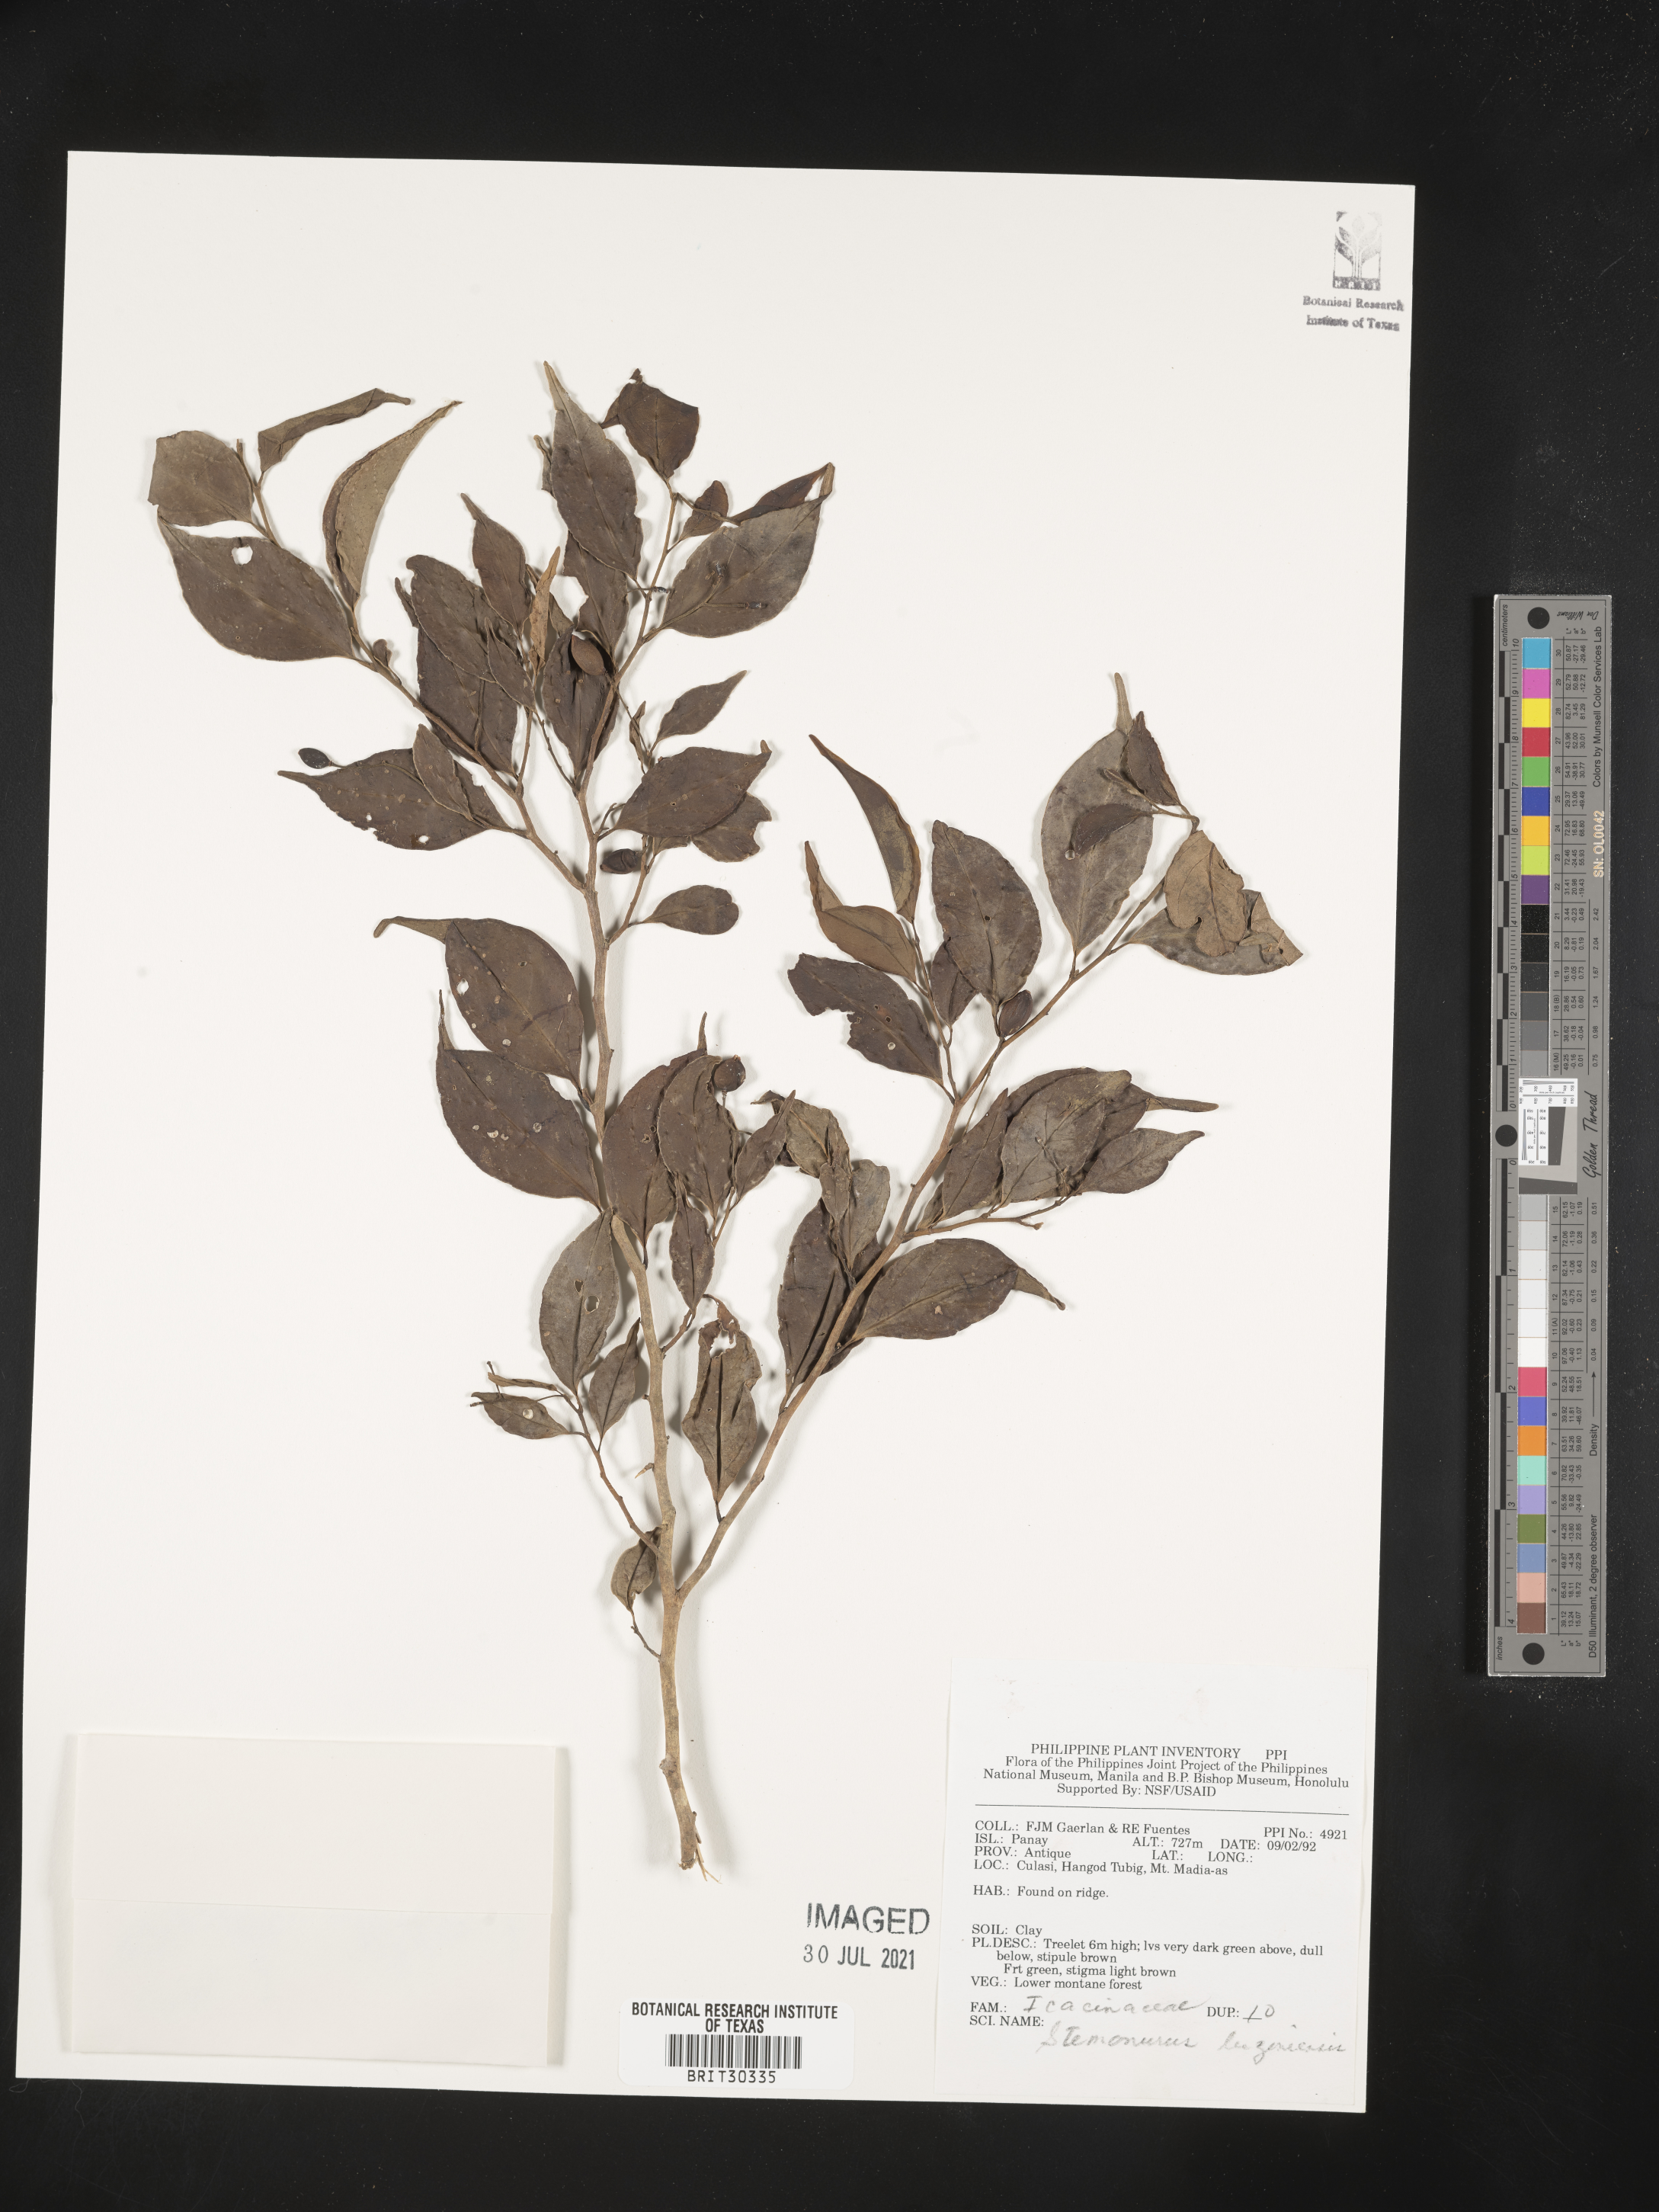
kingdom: Plantae
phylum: Tracheophyta
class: Magnoliopsida
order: Cardiopteridales
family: Stemonuraceae
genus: Gomphandra
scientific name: Gomphandra luzoniensis
